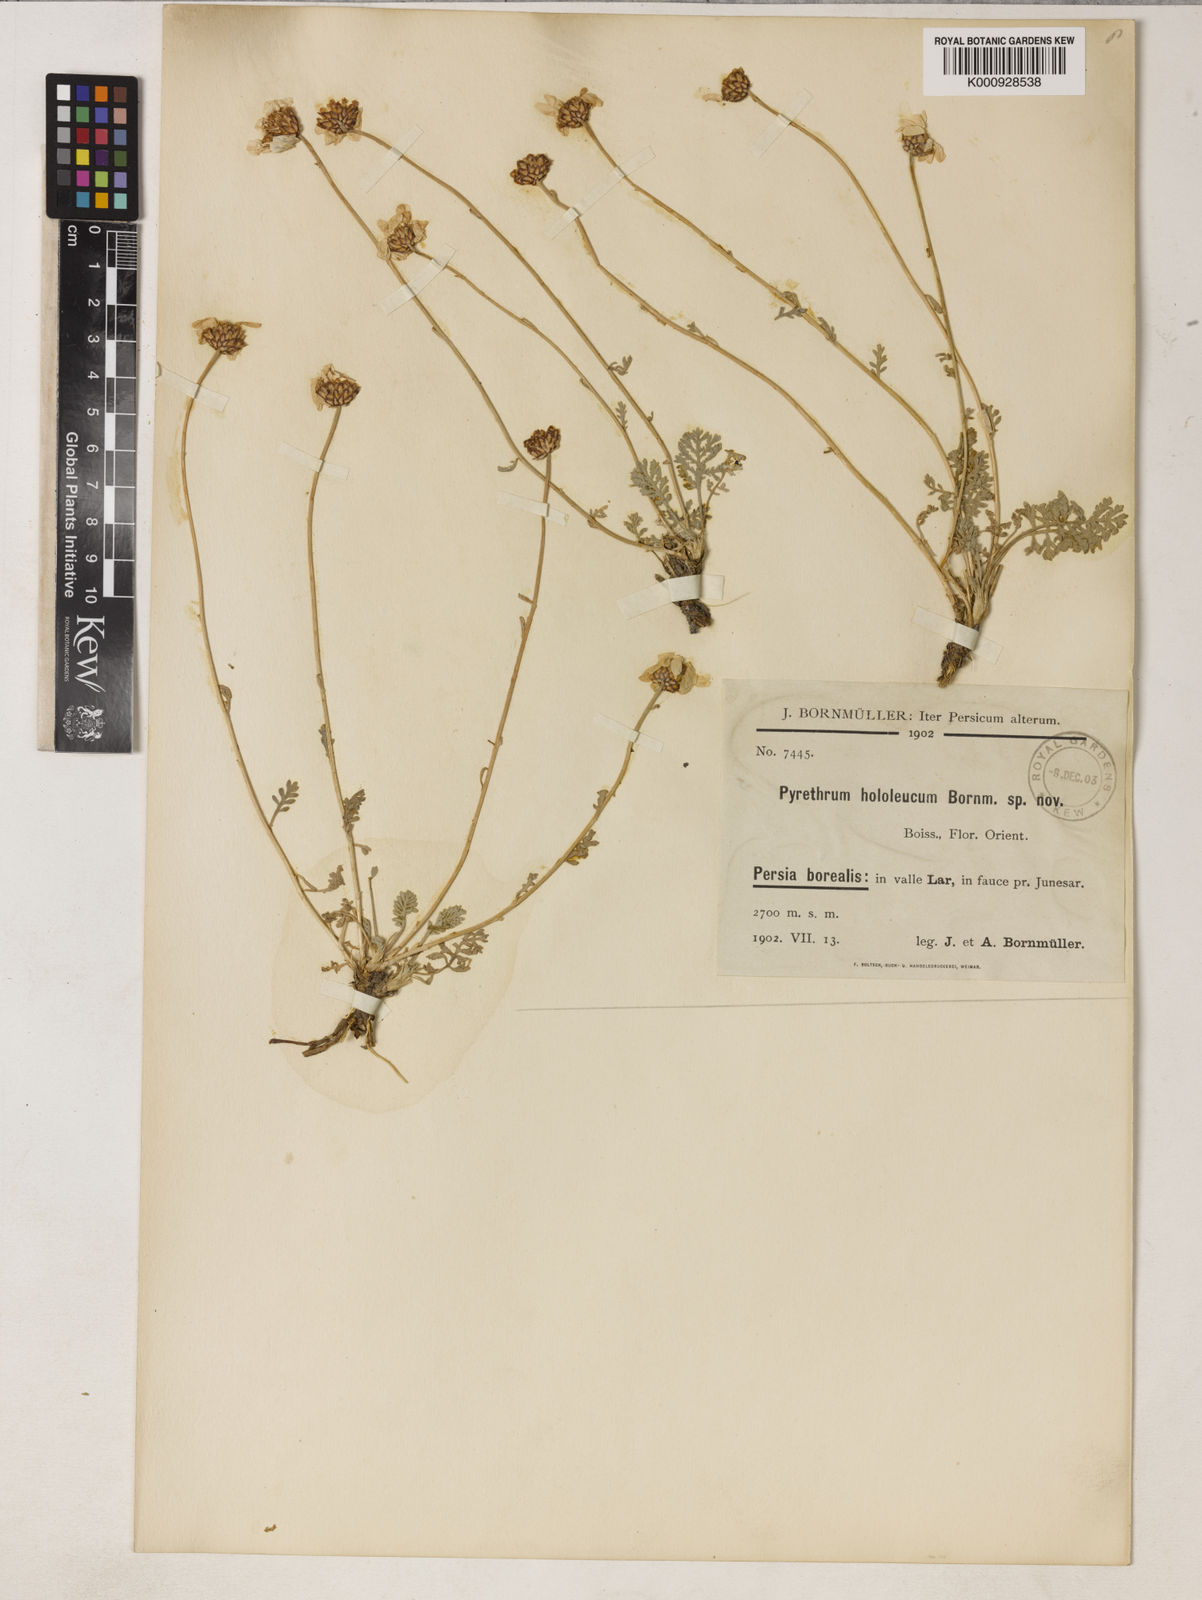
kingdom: Plantae
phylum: Tracheophyta
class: Magnoliopsida
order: Asterales
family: Asteraceae
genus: Tanacetum
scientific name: Tanacetum hololeucum
